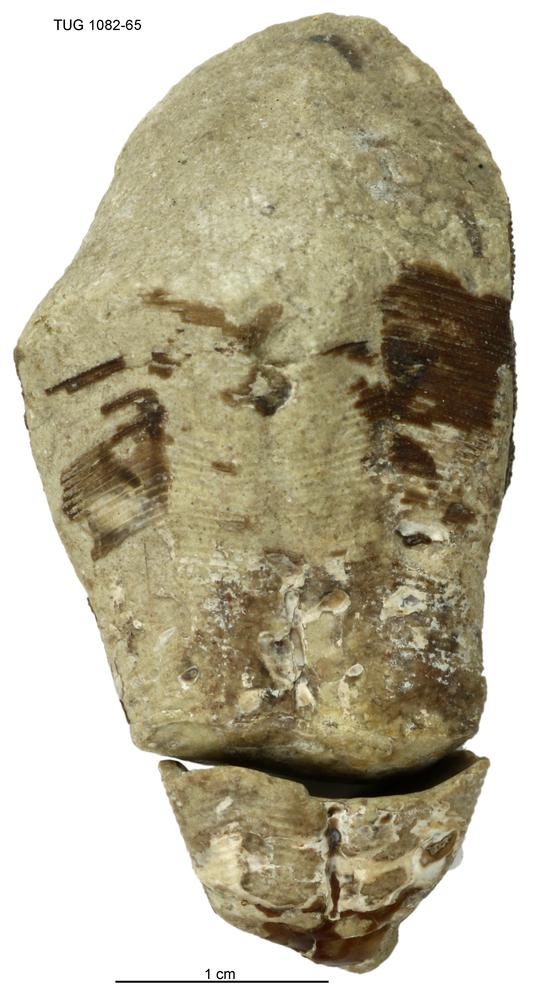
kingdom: Animalia
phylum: Cnidaria
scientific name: Cnidaria
